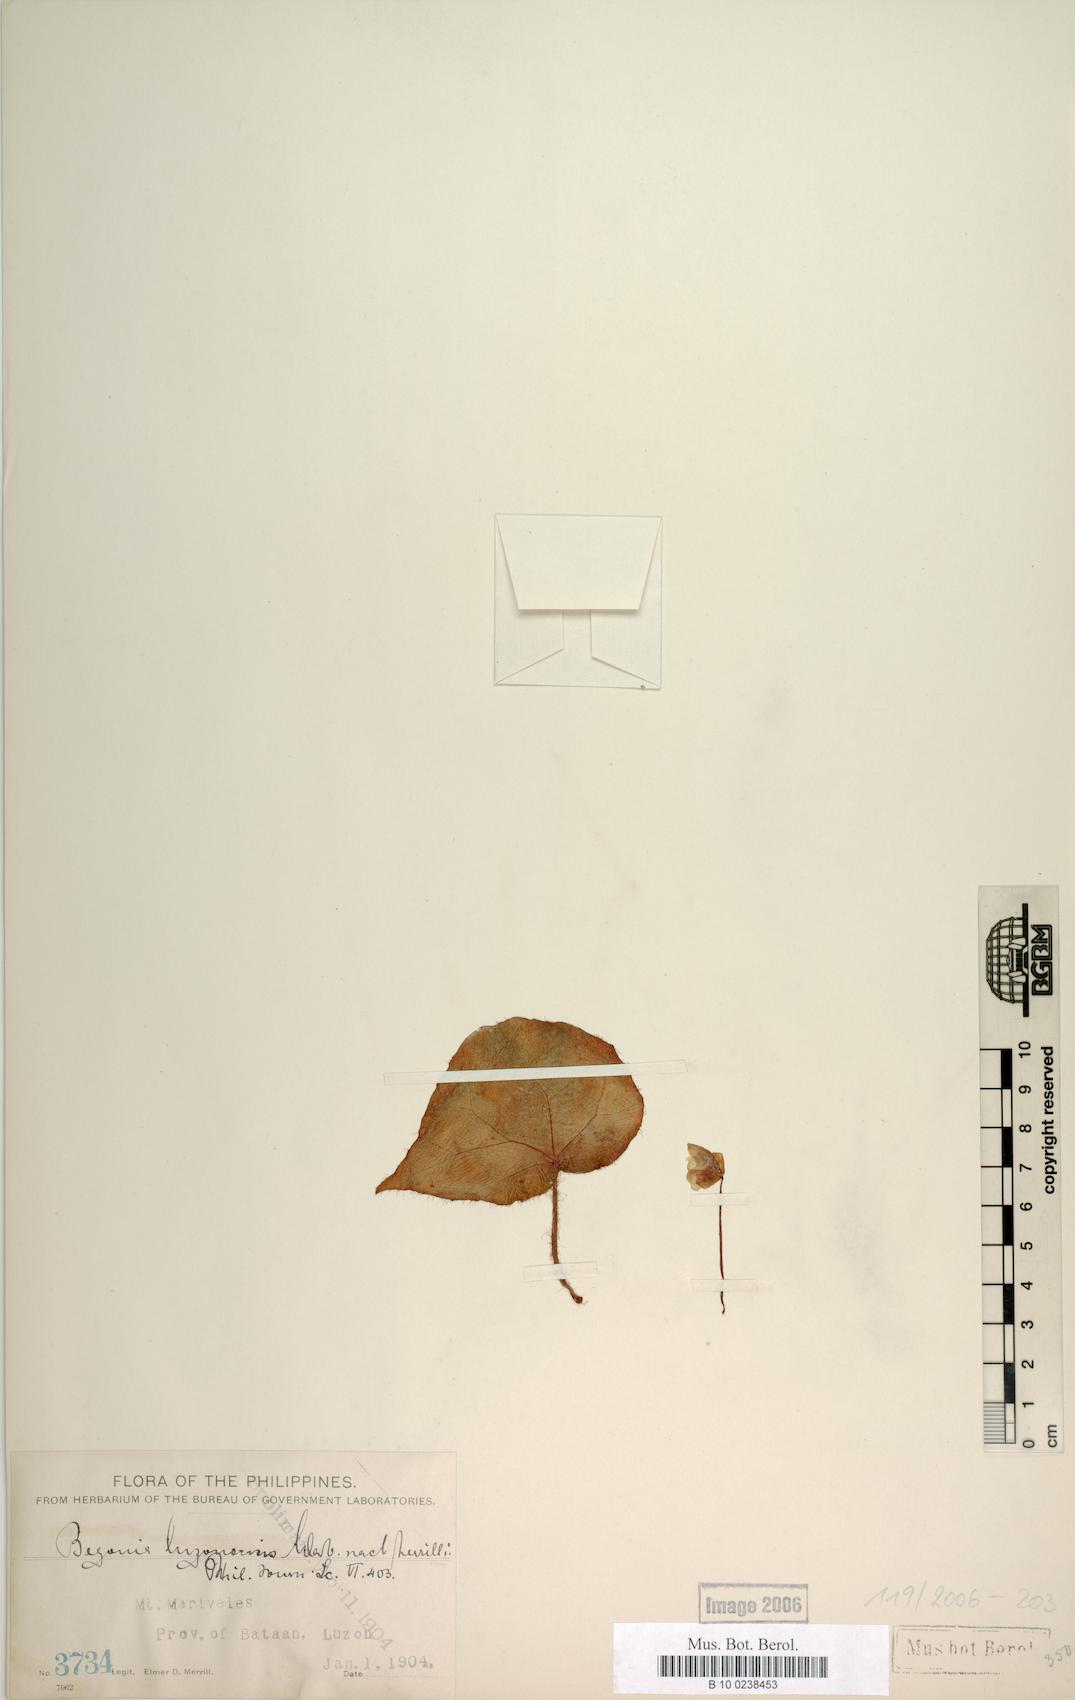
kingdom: Plantae
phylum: Tracheophyta
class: Magnoliopsida
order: Cucurbitales
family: Begoniaceae
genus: Begonia
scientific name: Begonia luzonensis
